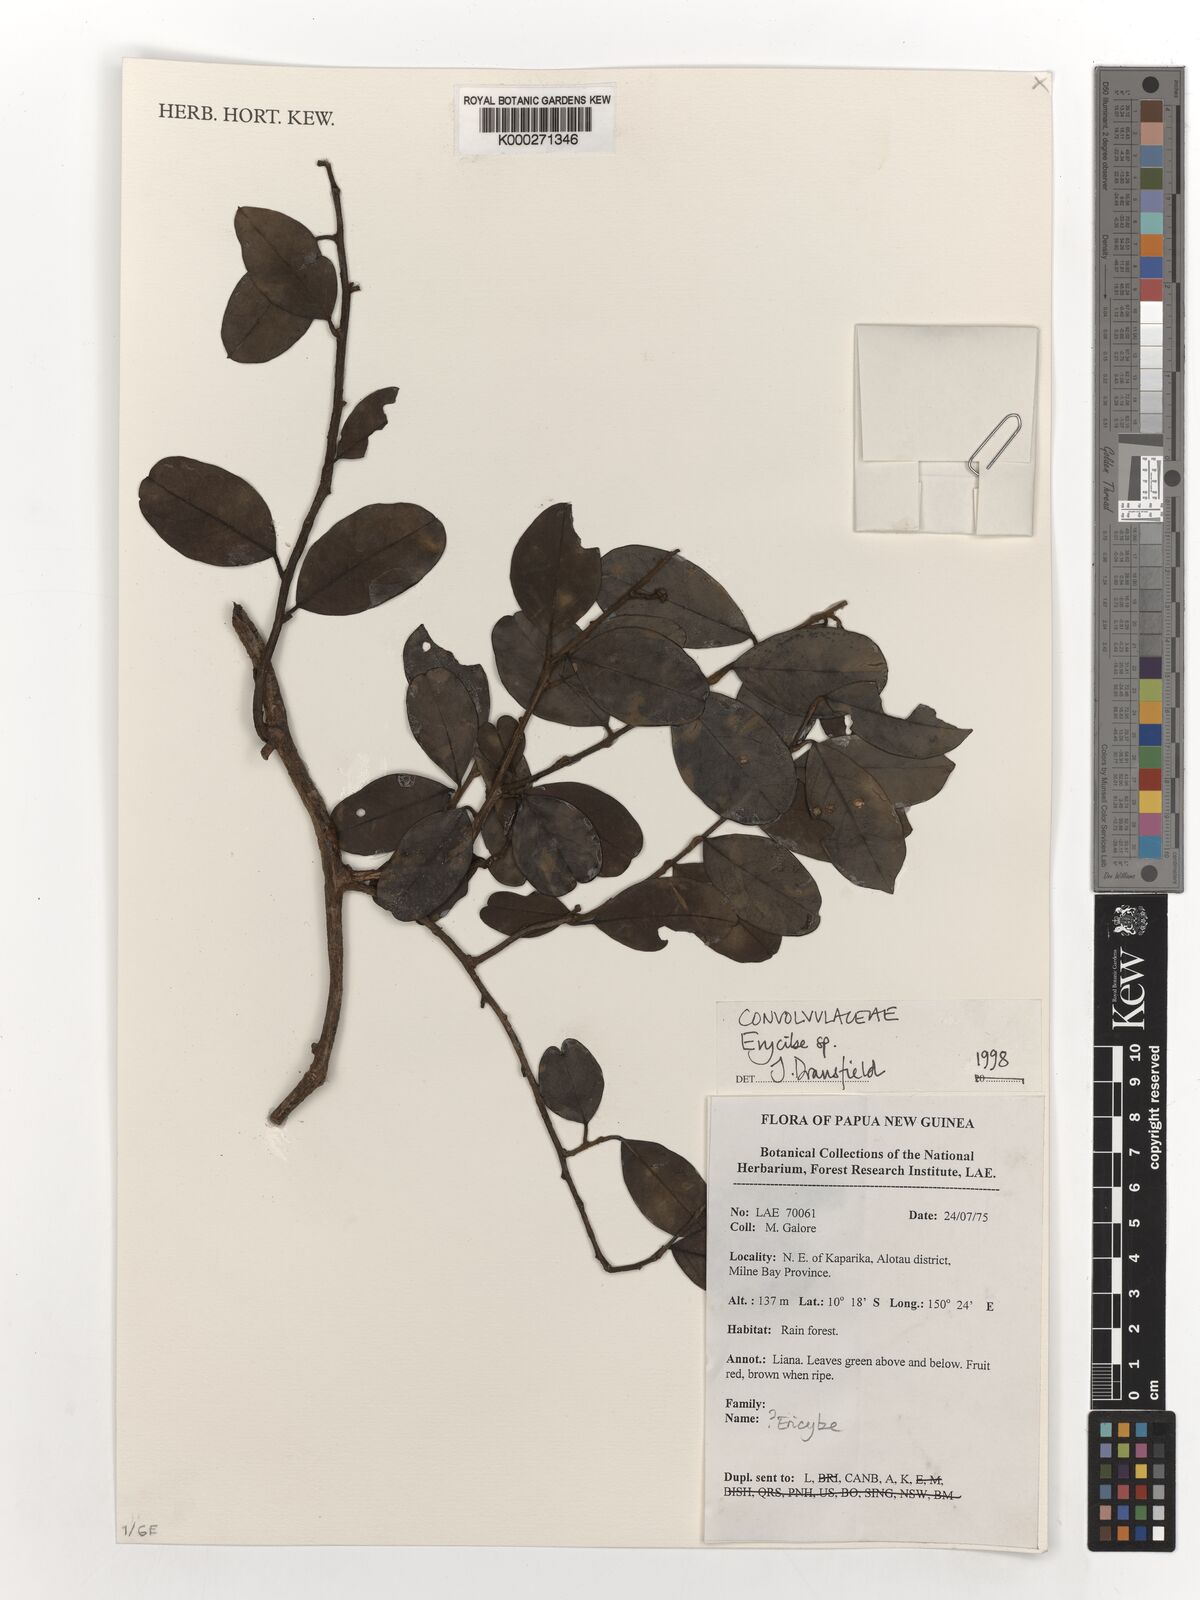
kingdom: Plantae
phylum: Tracheophyta
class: Magnoliopsida
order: Solanales
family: Convolvulaceae
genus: Erycibe
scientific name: Erycibe
